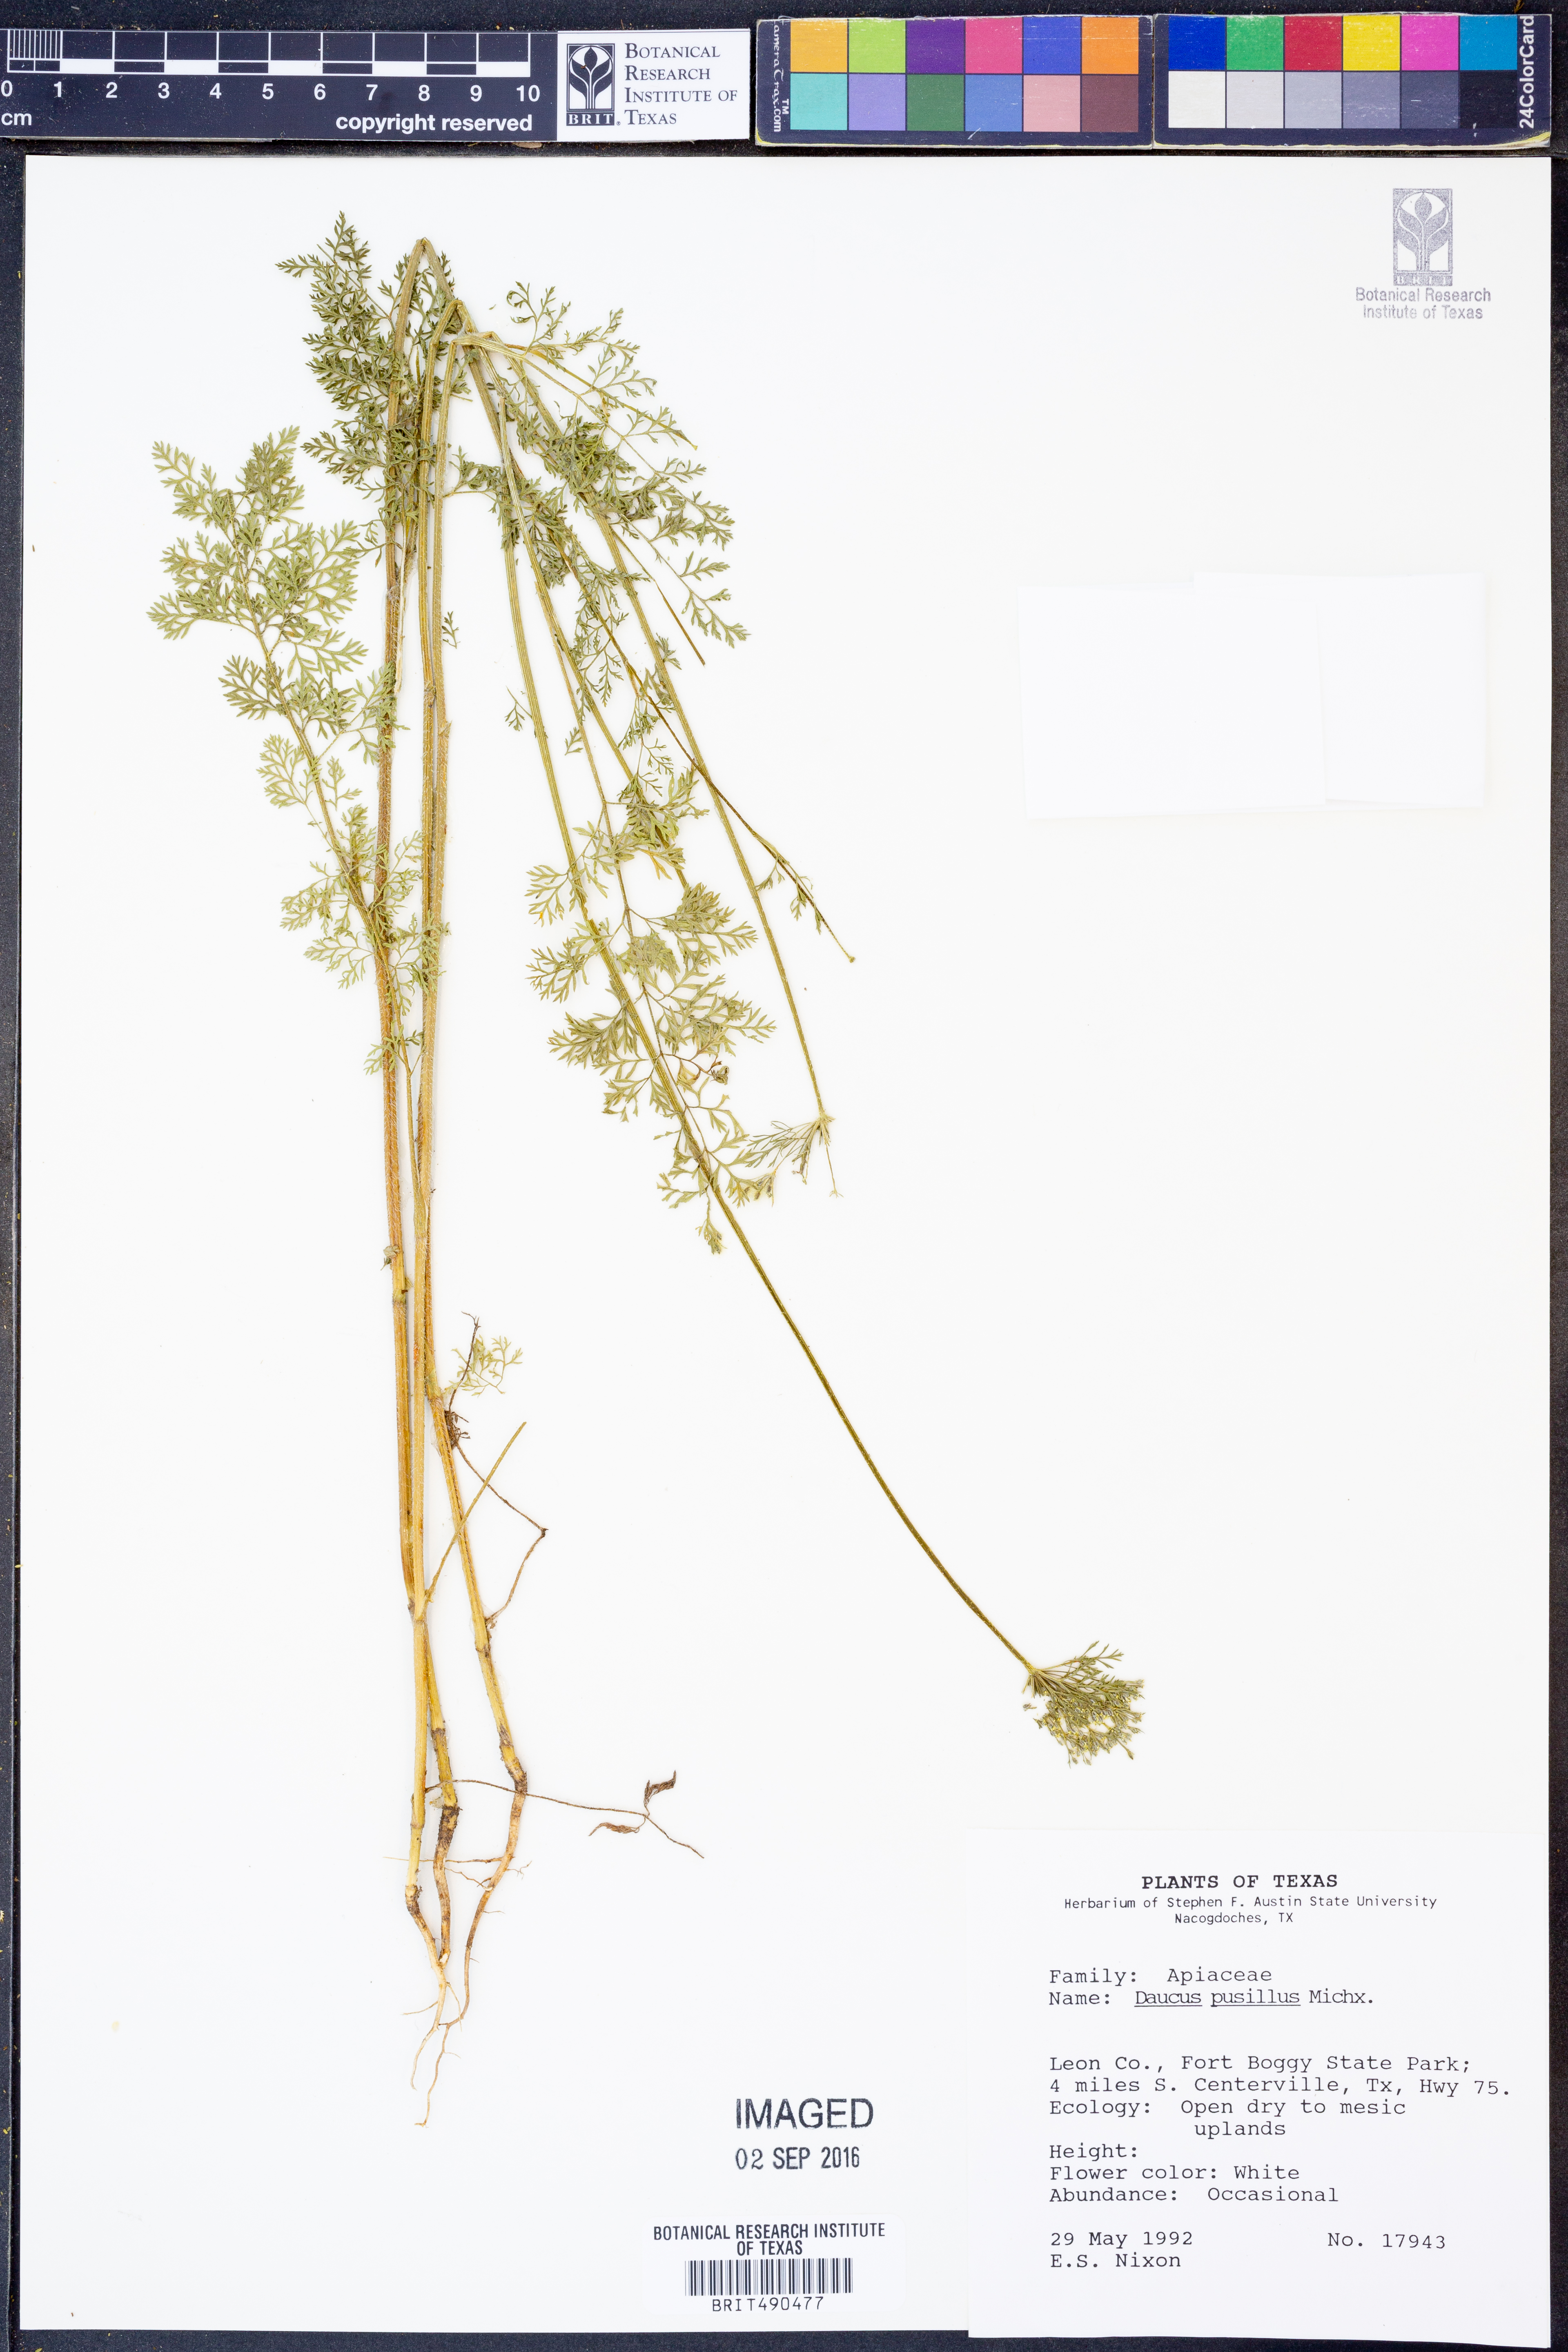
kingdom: Plantae
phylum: Tracheophyta
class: Magnoliopsida
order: Apiales
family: Apiaceae
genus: Daucus
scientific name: Daucus pusillus
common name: Southwest wild carrot
